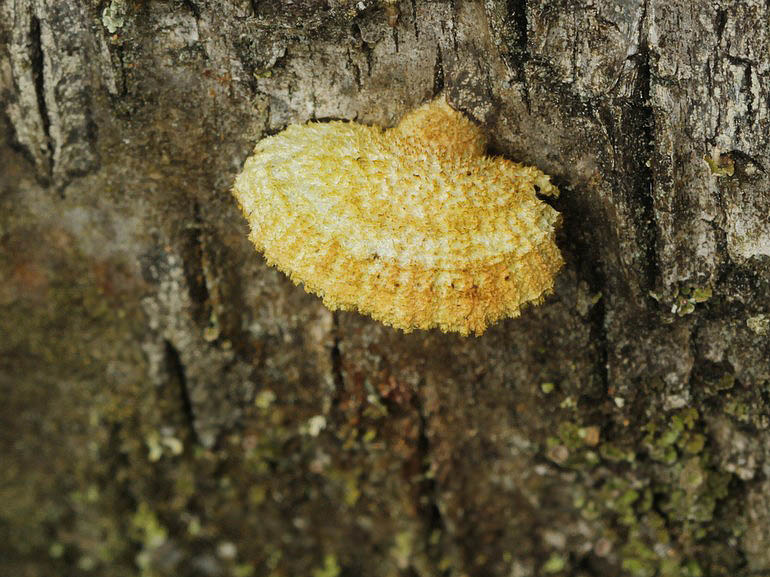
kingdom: Fungi
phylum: Basidiomycota
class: Agaricomycetes
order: Agaricales
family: Schizophyllaceae
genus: Schizophyllum
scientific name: Schizophyllum commune
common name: kløvblad
